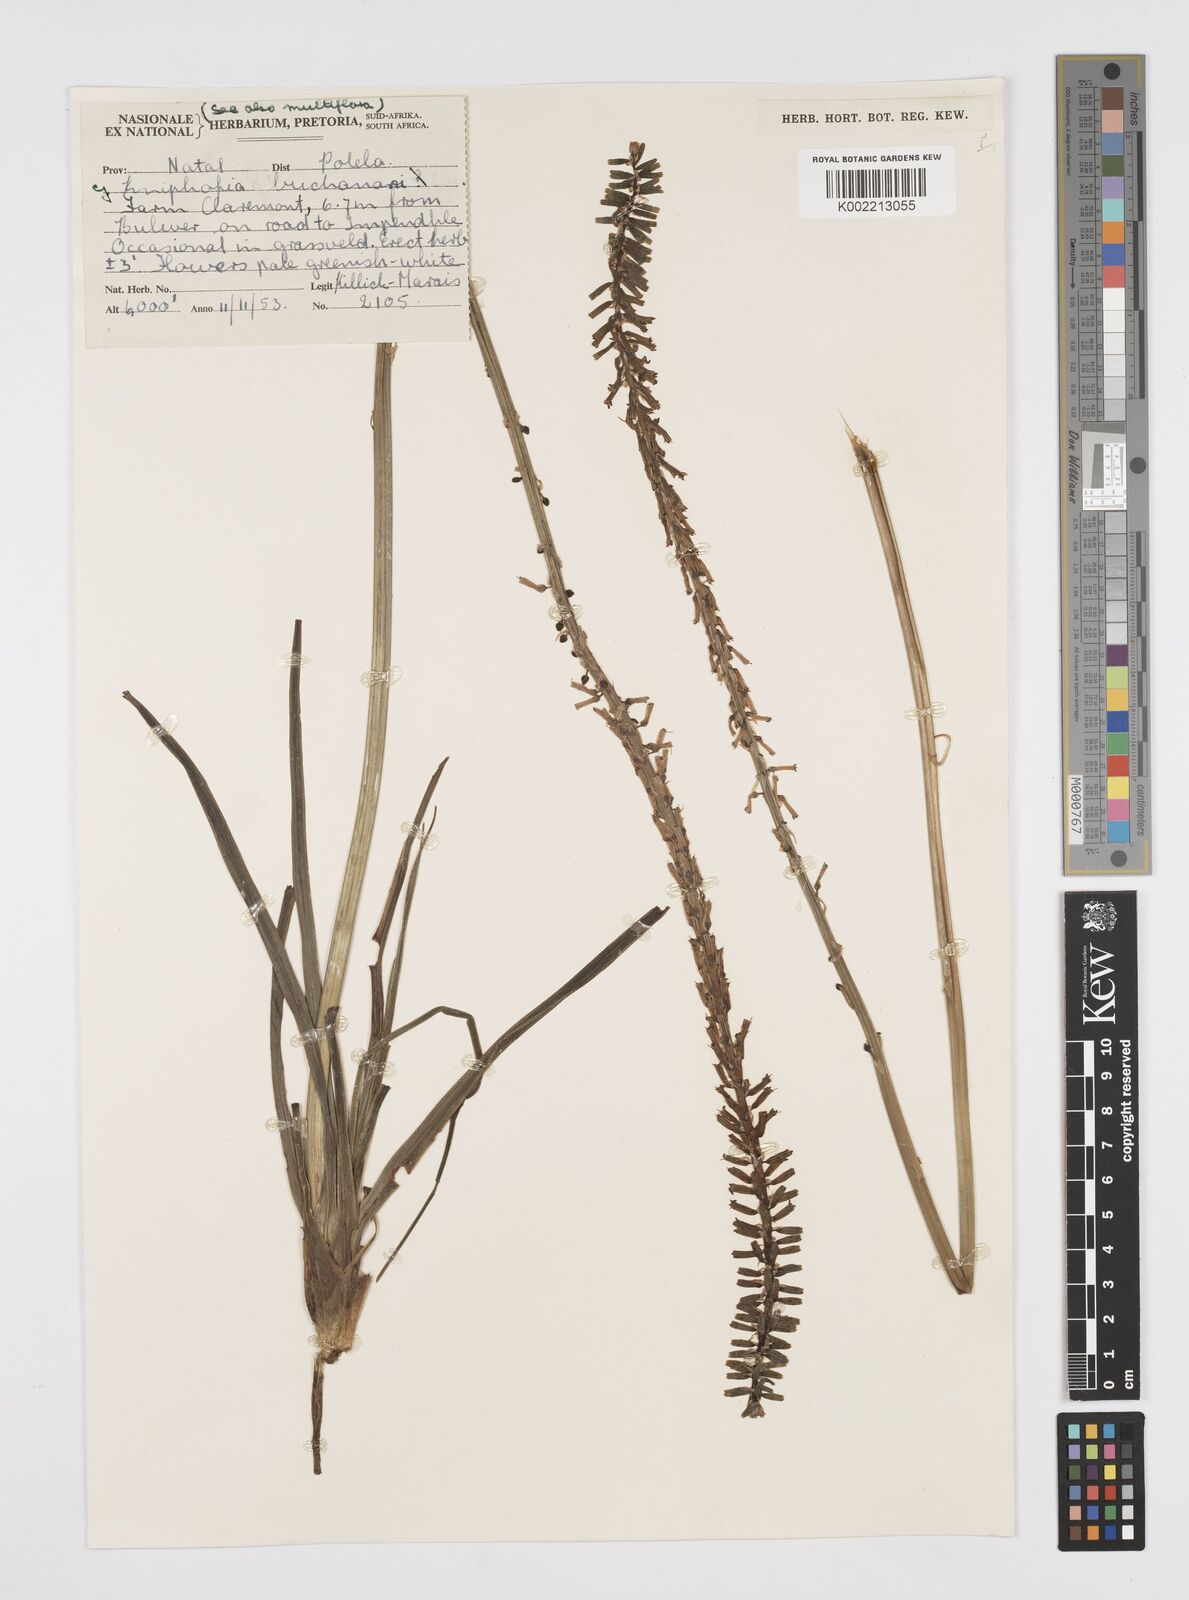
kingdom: Plantae
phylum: Tracheophyta
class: Liliopsida
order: Asparagales
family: Asphodelaceae
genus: Kniphofia
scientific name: Kniphofia parviflora
